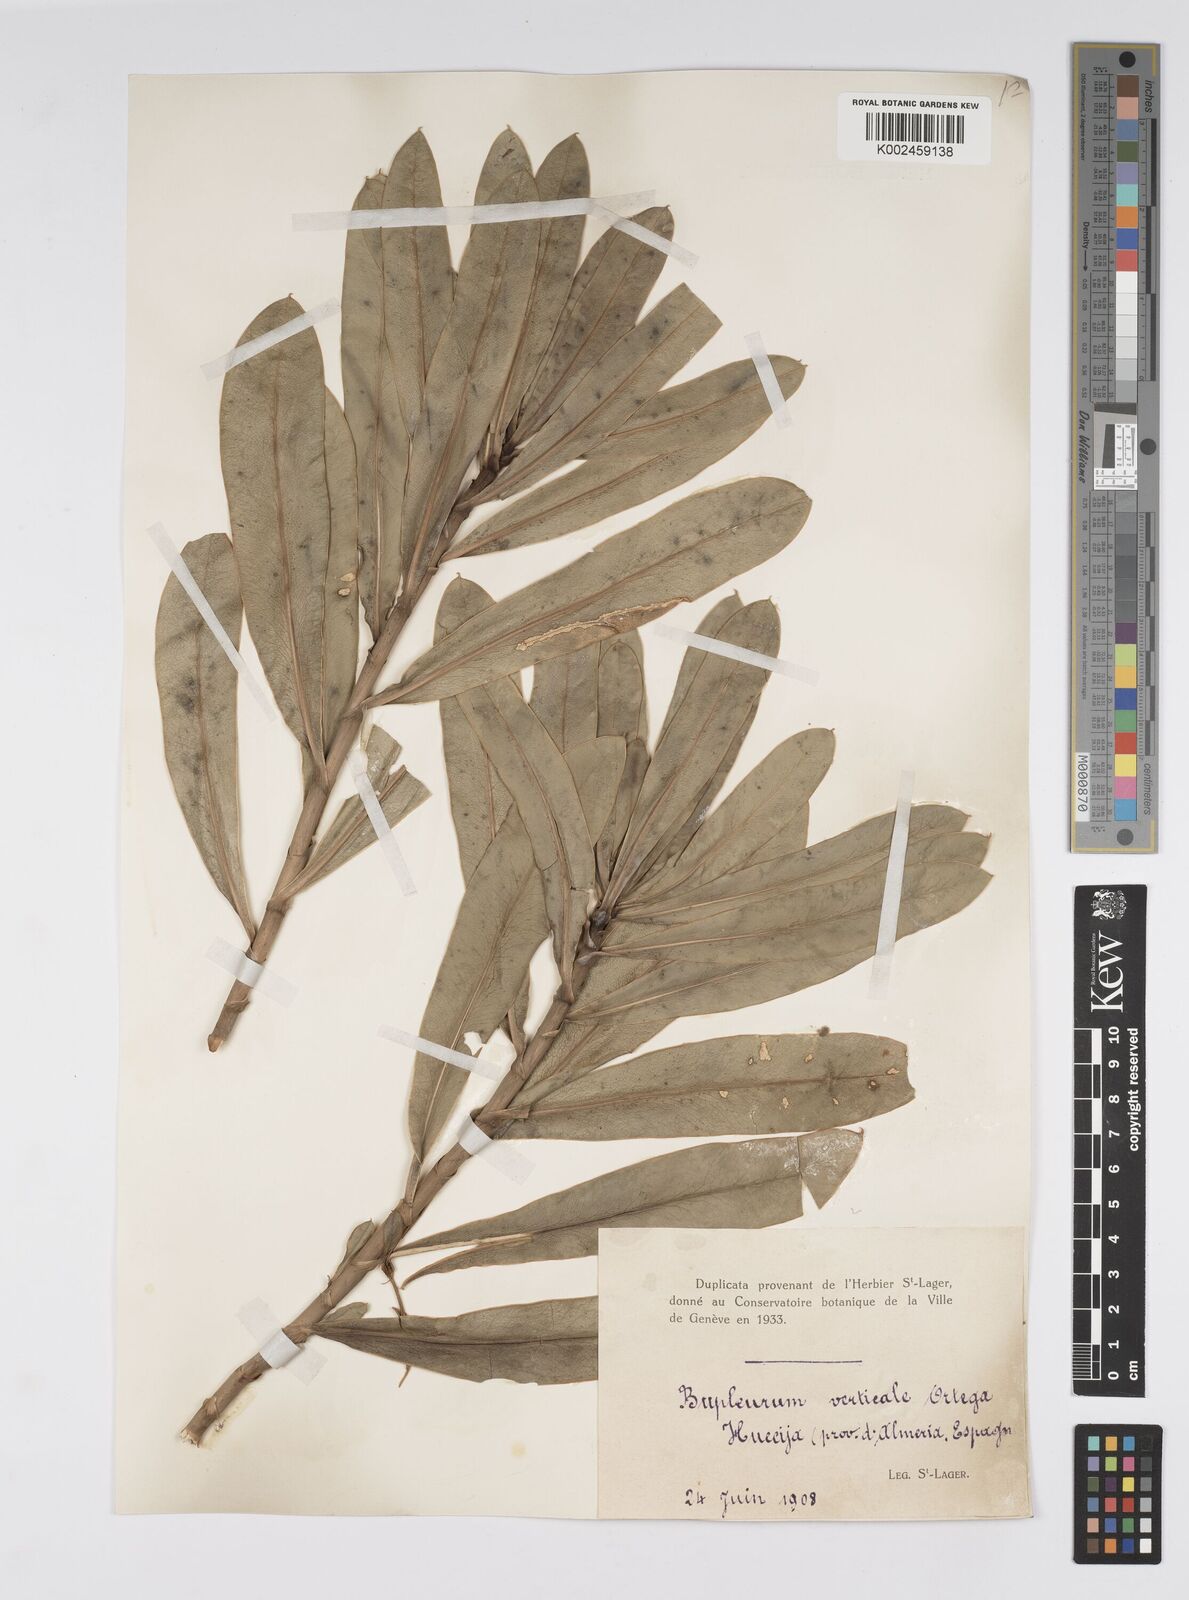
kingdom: Plantae
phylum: Tracheophyta
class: Magnoliopsida
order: Apiales
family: Apiaceae
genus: Bupleurum
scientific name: Bupleurum gibraltaricum
